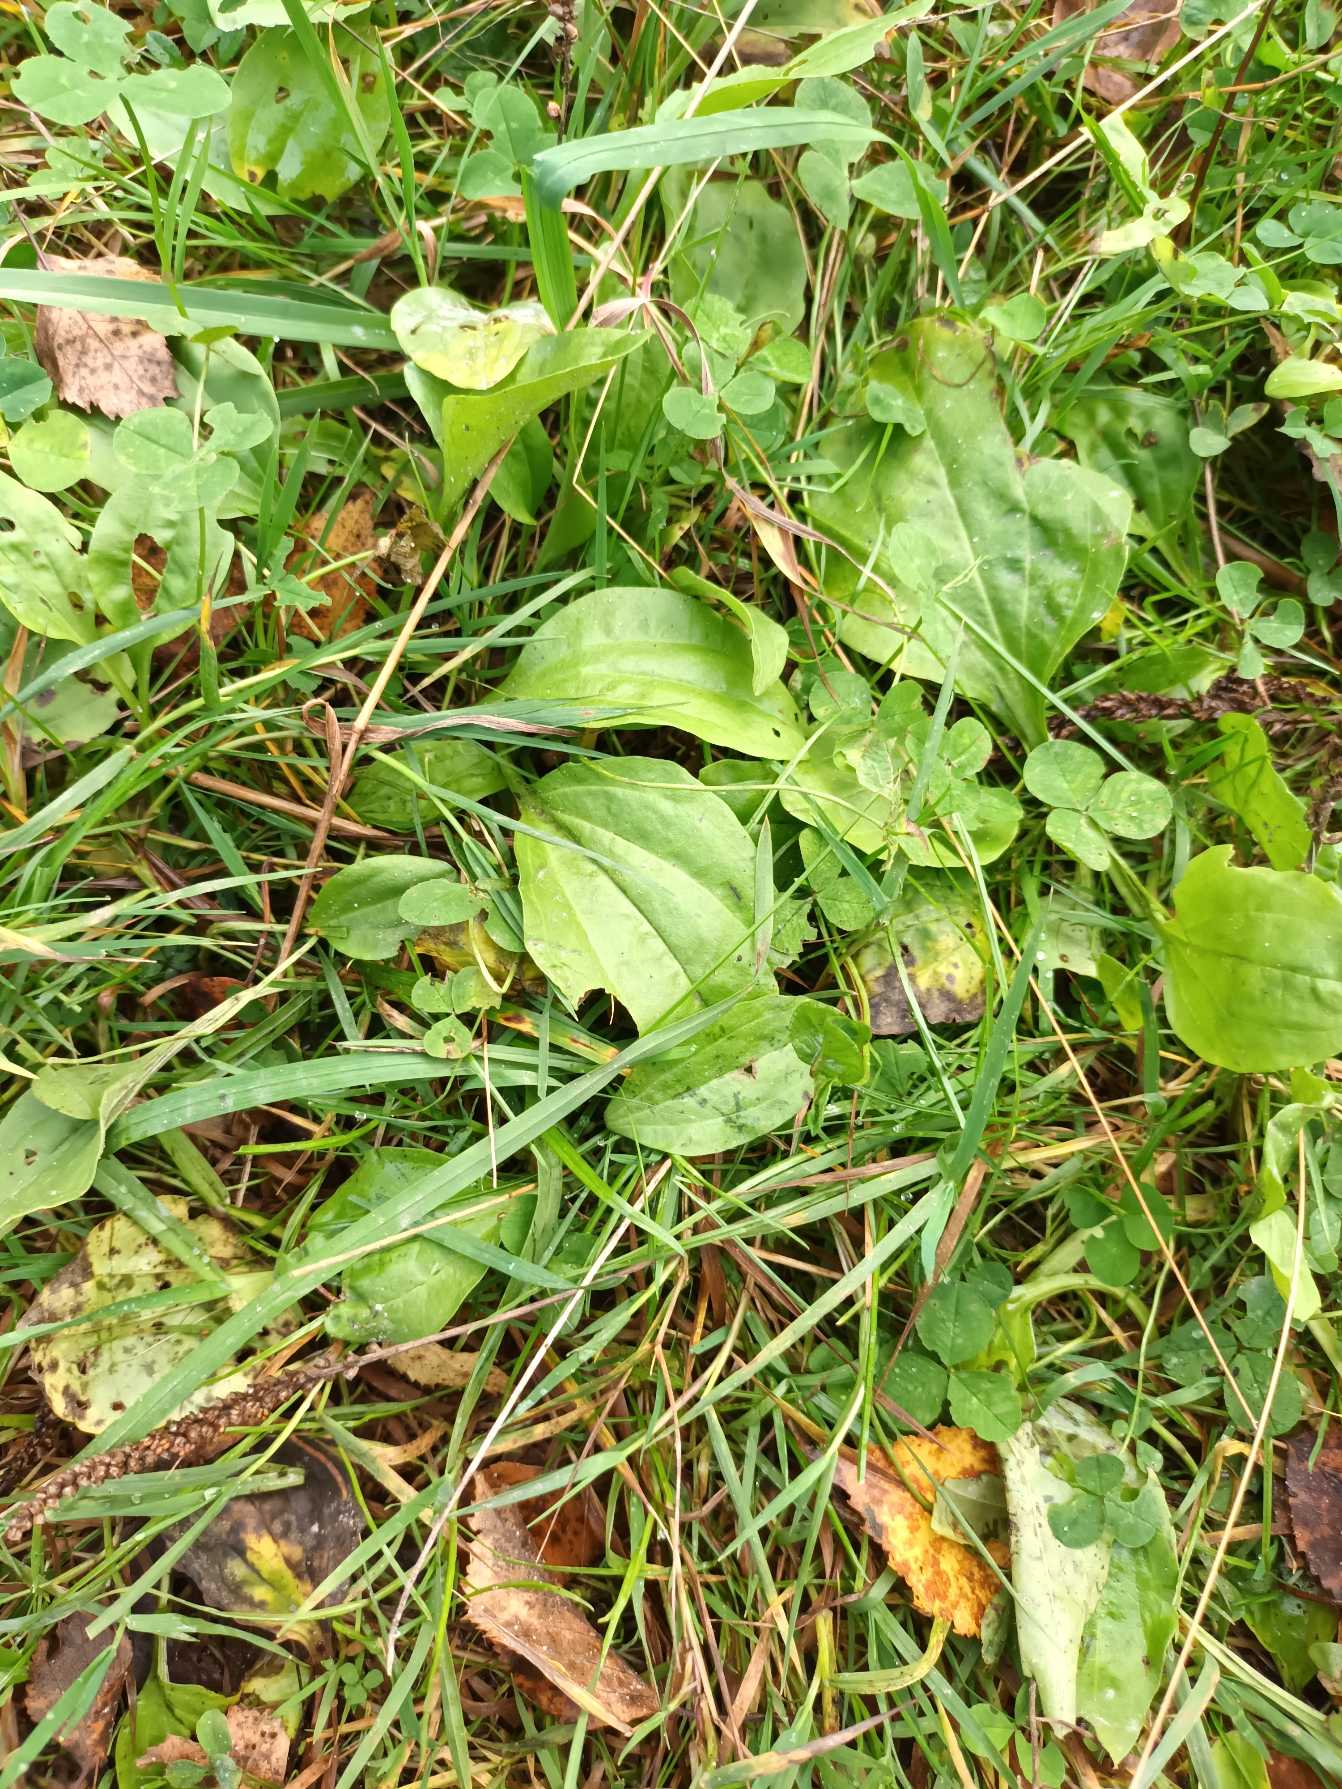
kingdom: Plantae
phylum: Tracheophyta
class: Magnoliopsida
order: Lamiales
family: Plantaginaceae
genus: Plantago
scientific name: Plantago major
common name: Glat vejbred
